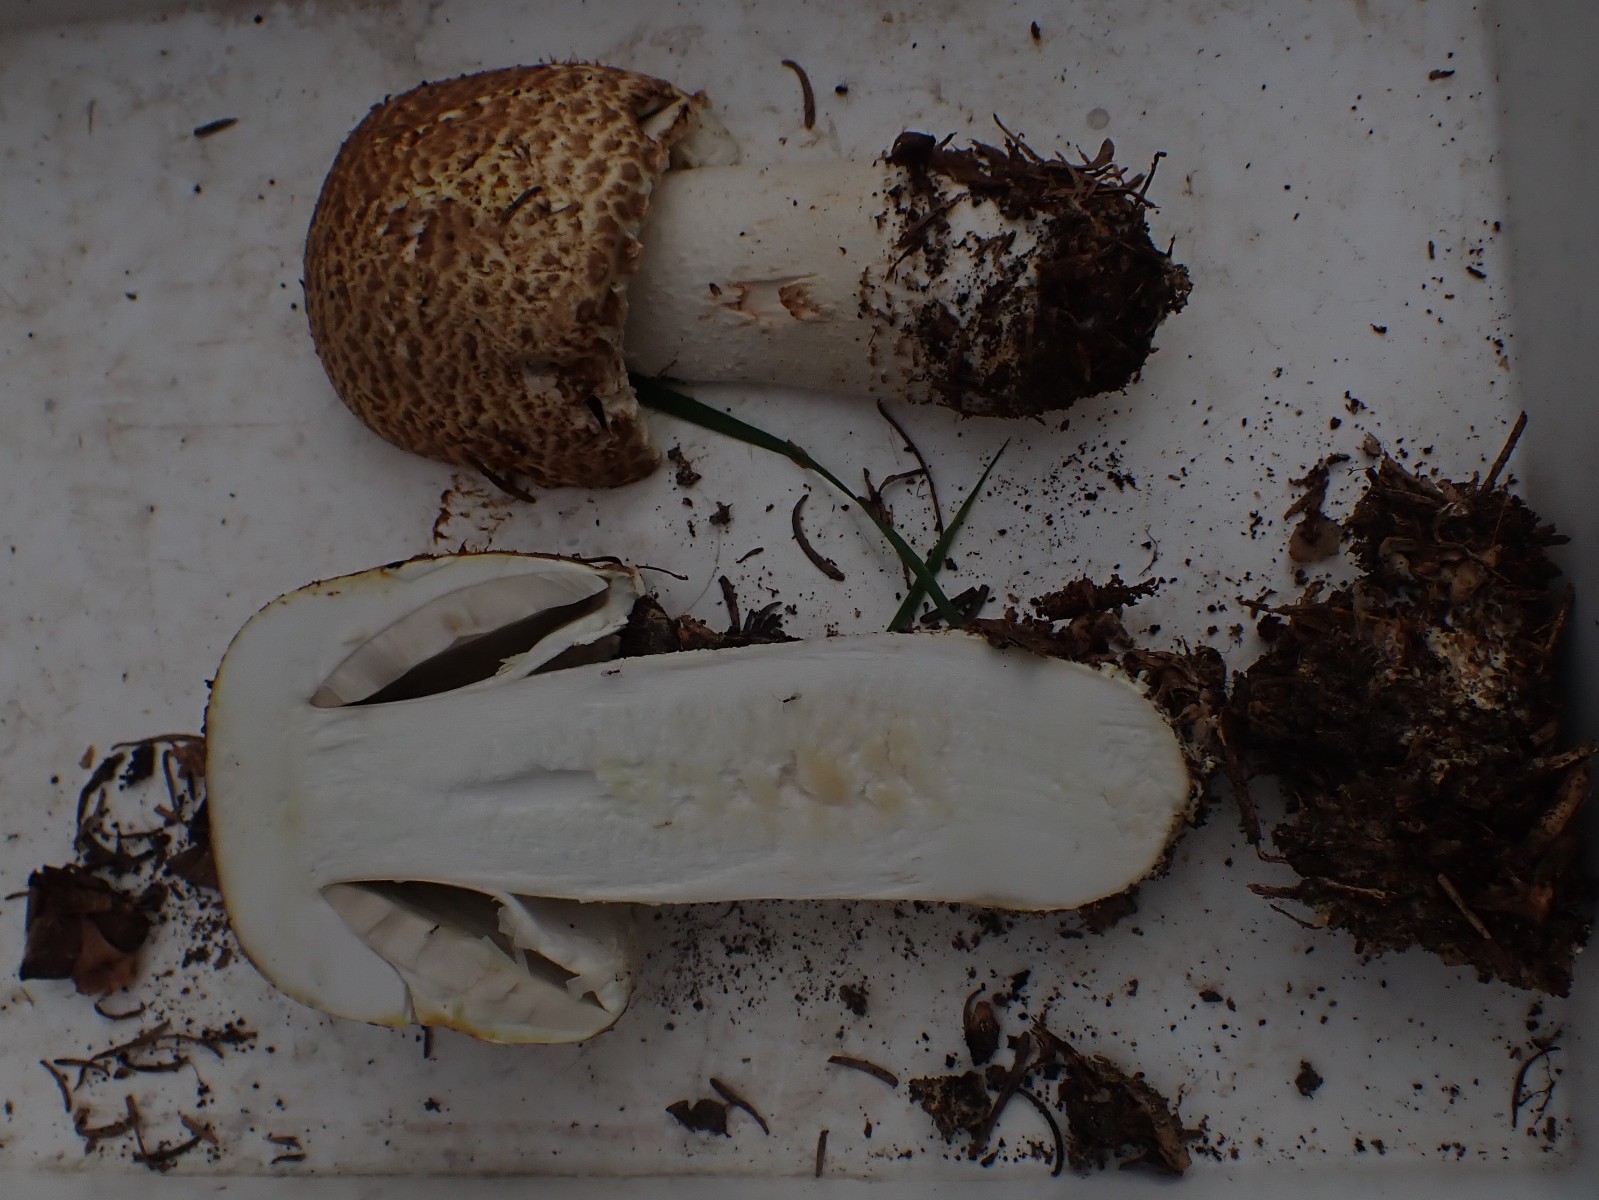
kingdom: Fungi
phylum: Basidiomycota
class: Agaricomycetes
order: Agaricales
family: Agaricaceae
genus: Agaricus
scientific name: Agaricus augustus
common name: prægtig champignon
